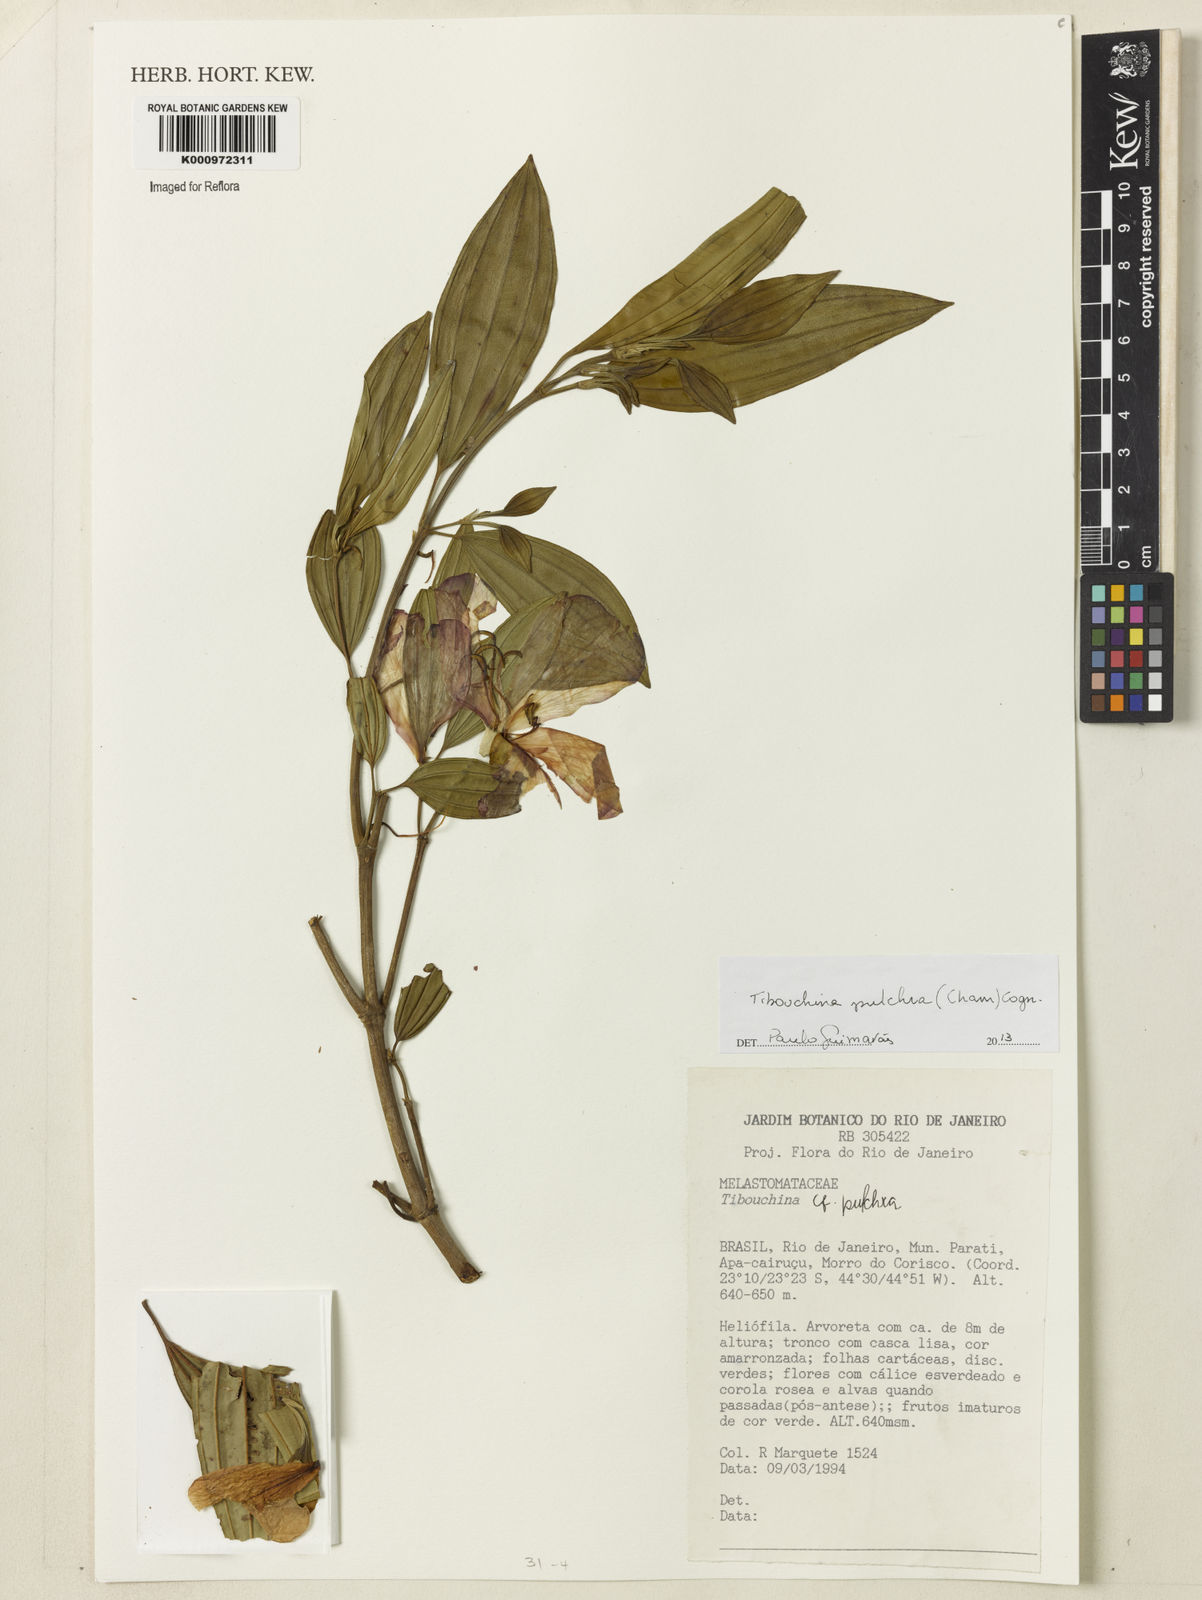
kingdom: Plantae
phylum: Tracheophyta
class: Magnoliopsida
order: Myrtales
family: Melastomataceae
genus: Pleroma
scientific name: Pleroma raddianum
